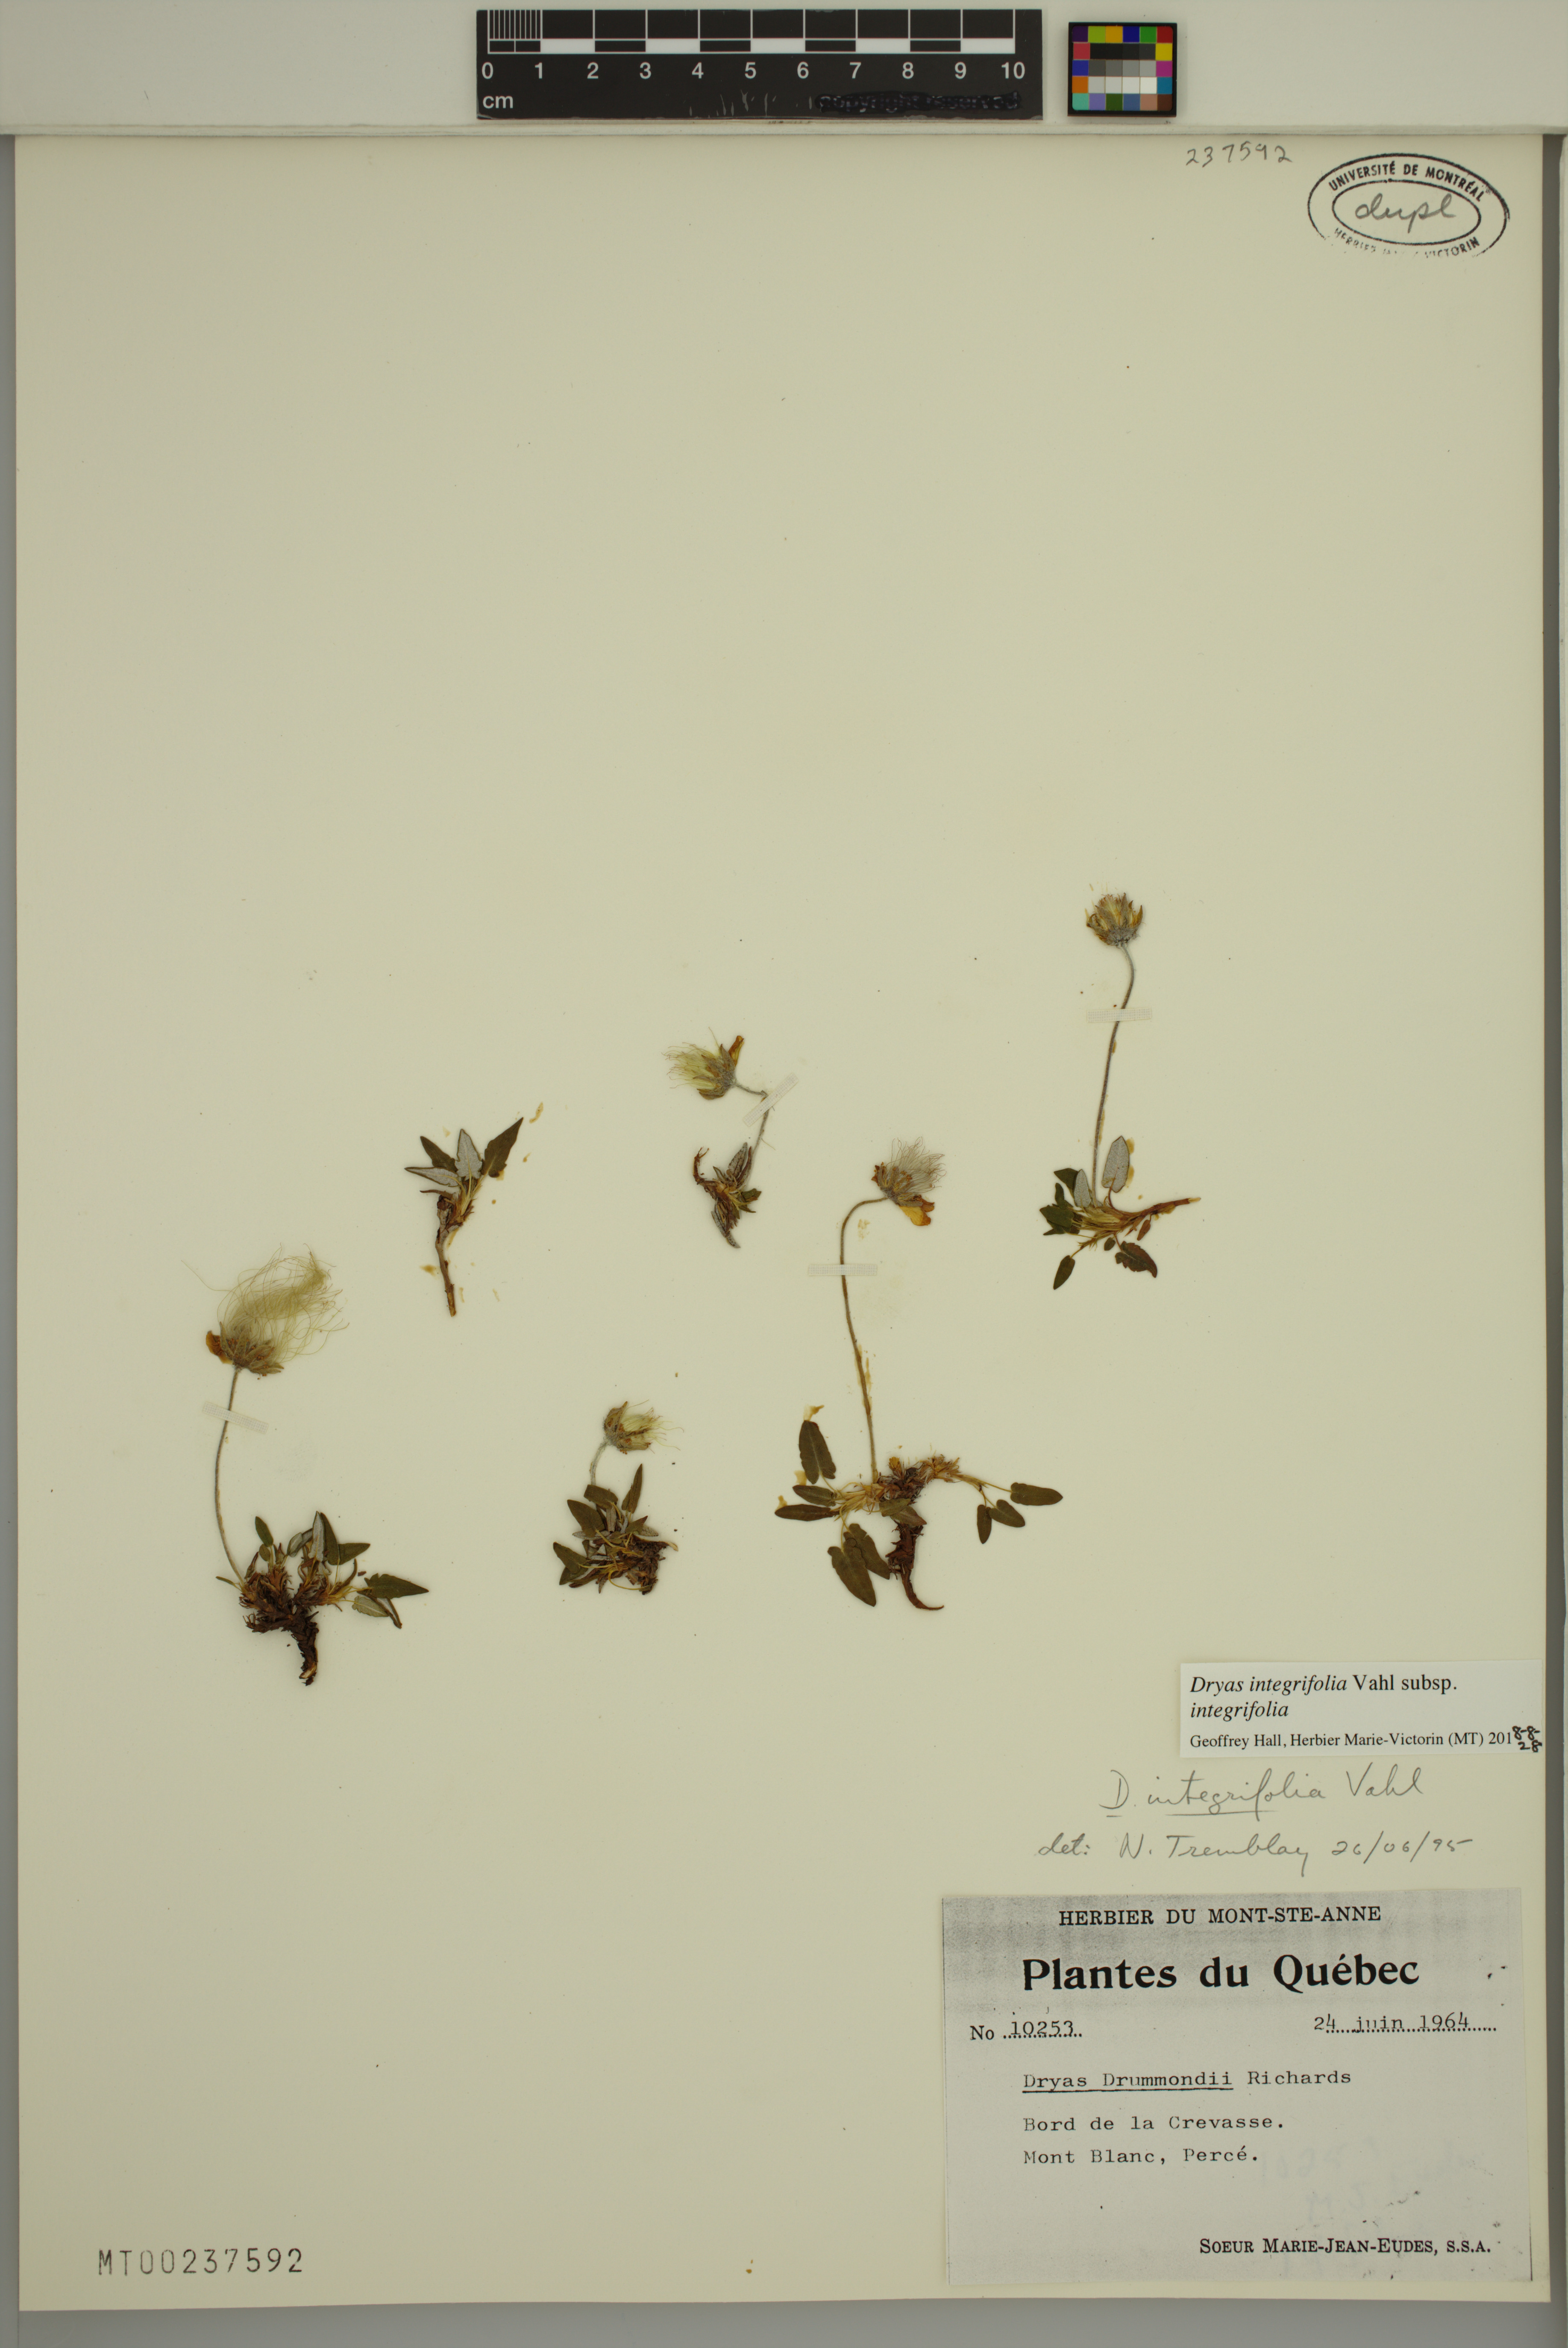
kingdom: Plantae
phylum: Tracheophyta
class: Magnoliopsida
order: Rosales
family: Rosaceae
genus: Dryas
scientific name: Dryas integrifolia
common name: Entire-leaved mountain avens
